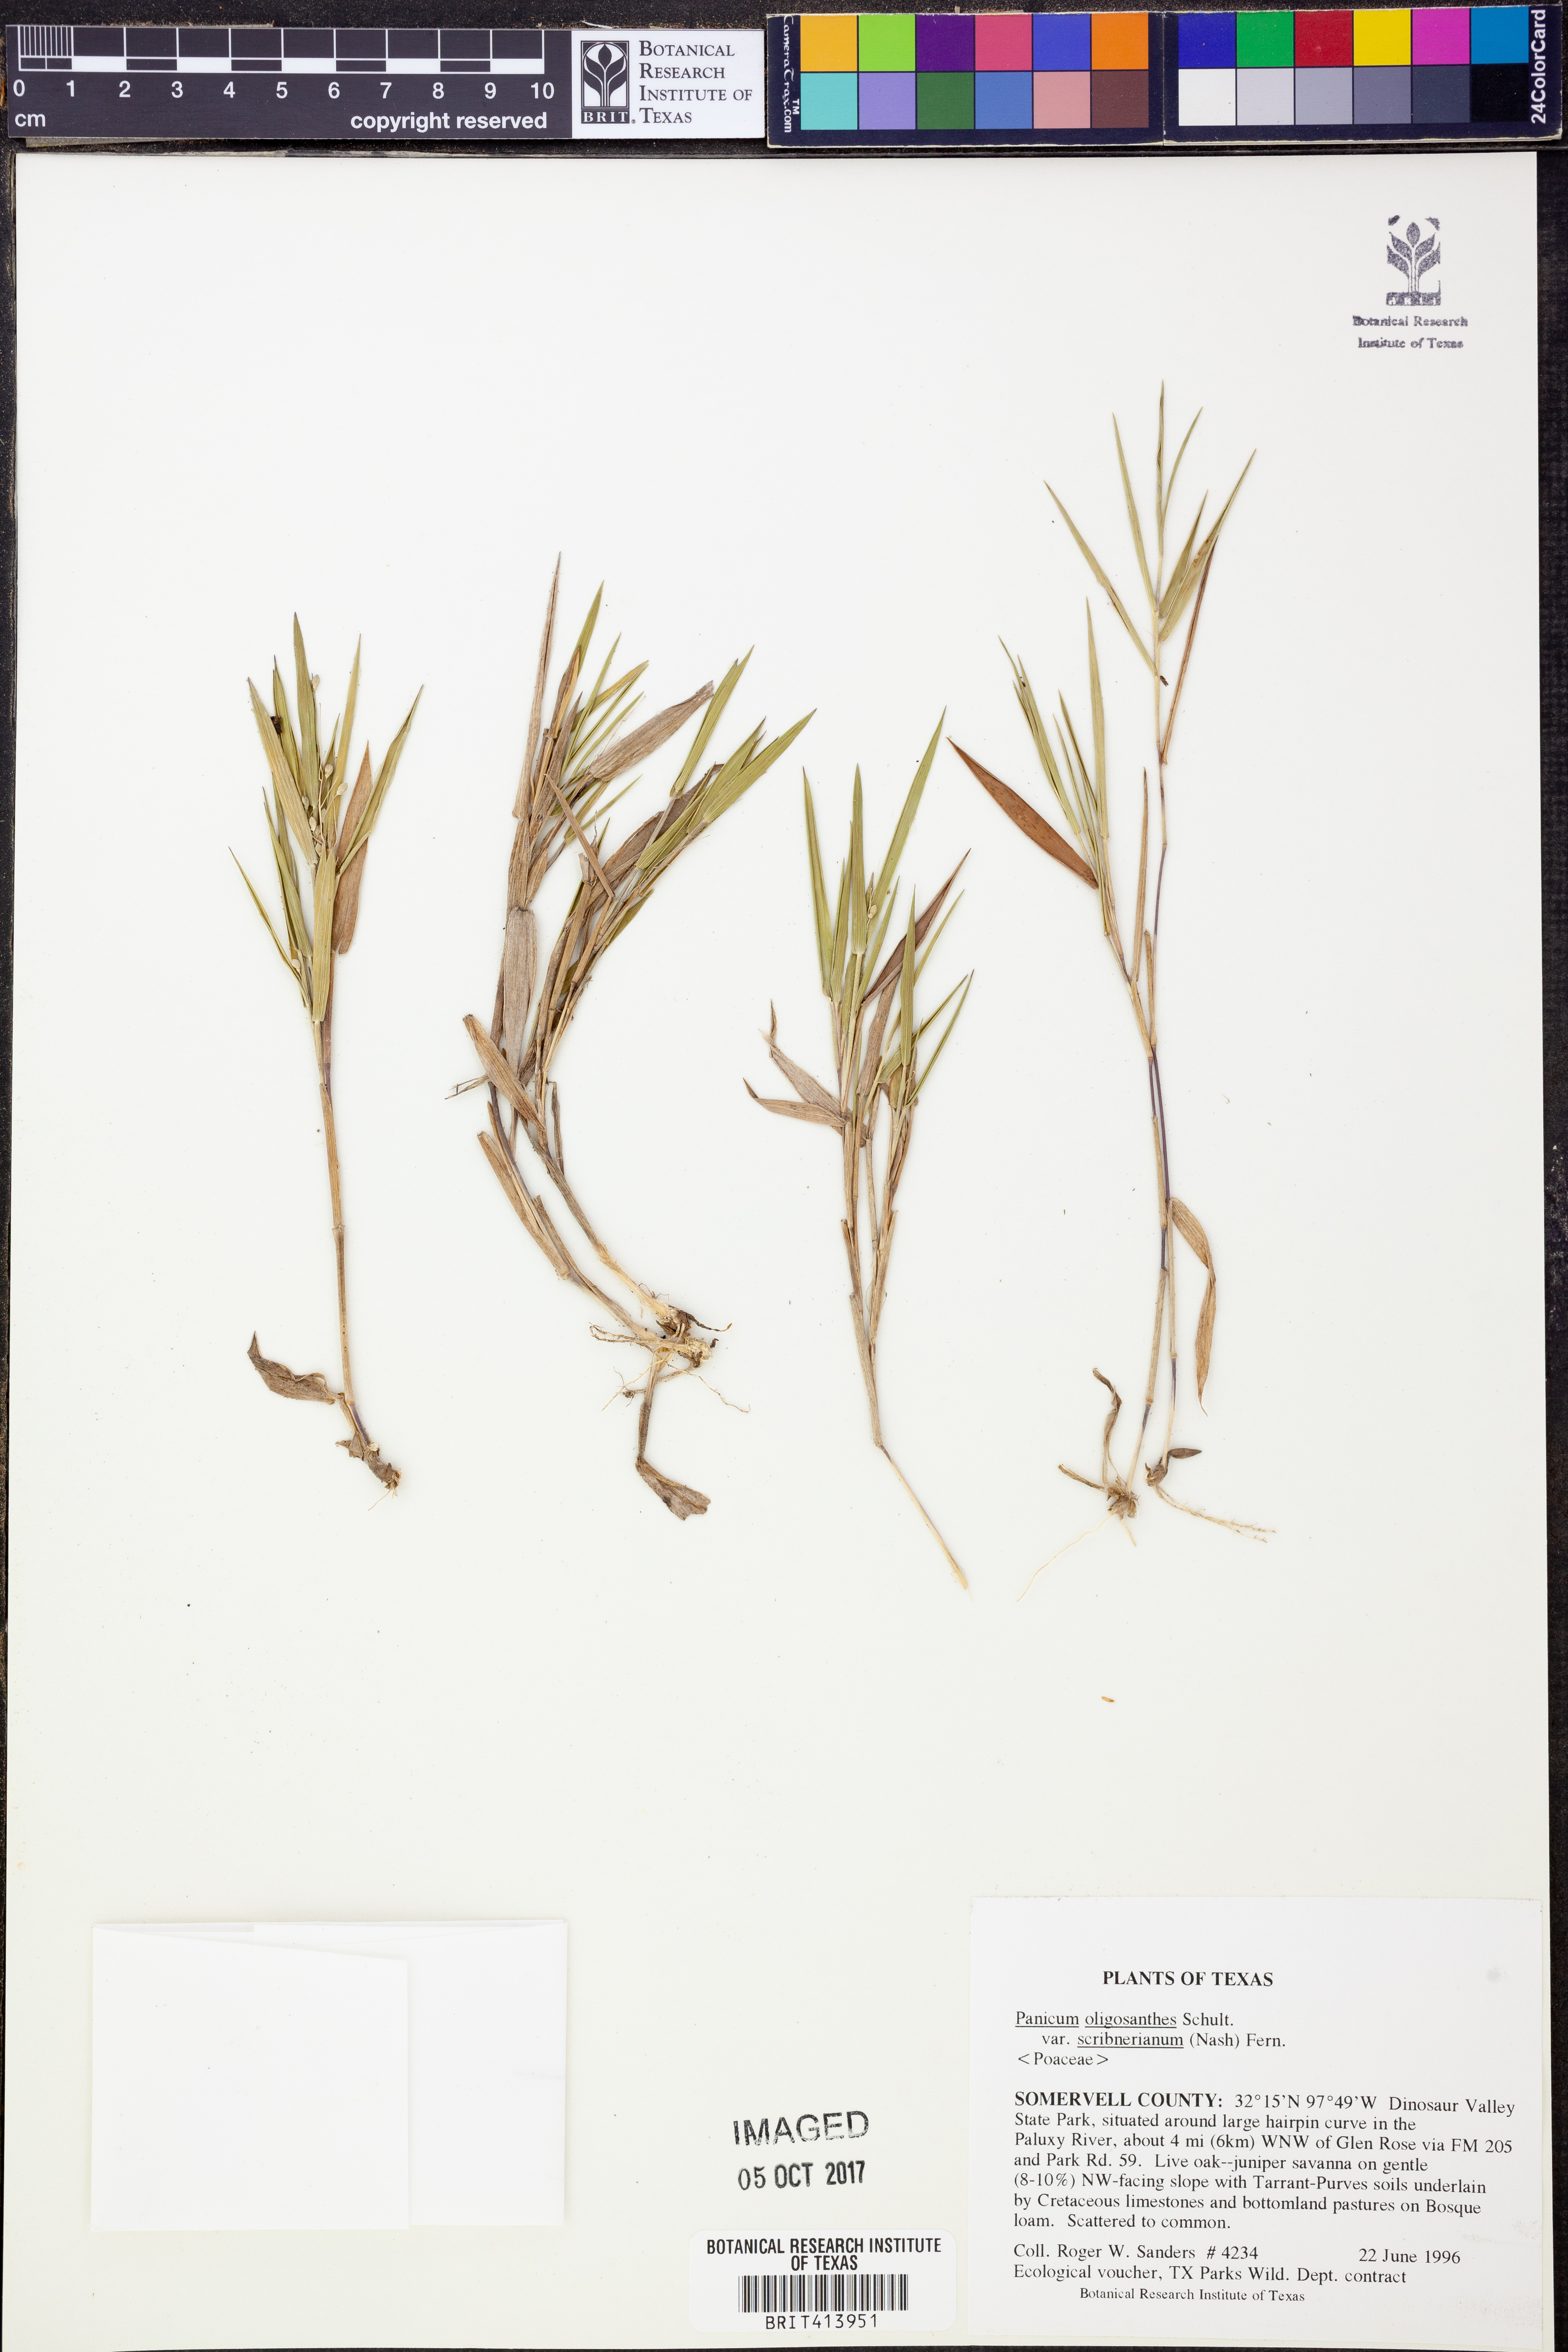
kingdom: Plantae
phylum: Tracheophyta
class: Liliopsida
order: Poales
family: Poaceae
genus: Dichanthelium
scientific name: Dichanthelium scribnerianum
